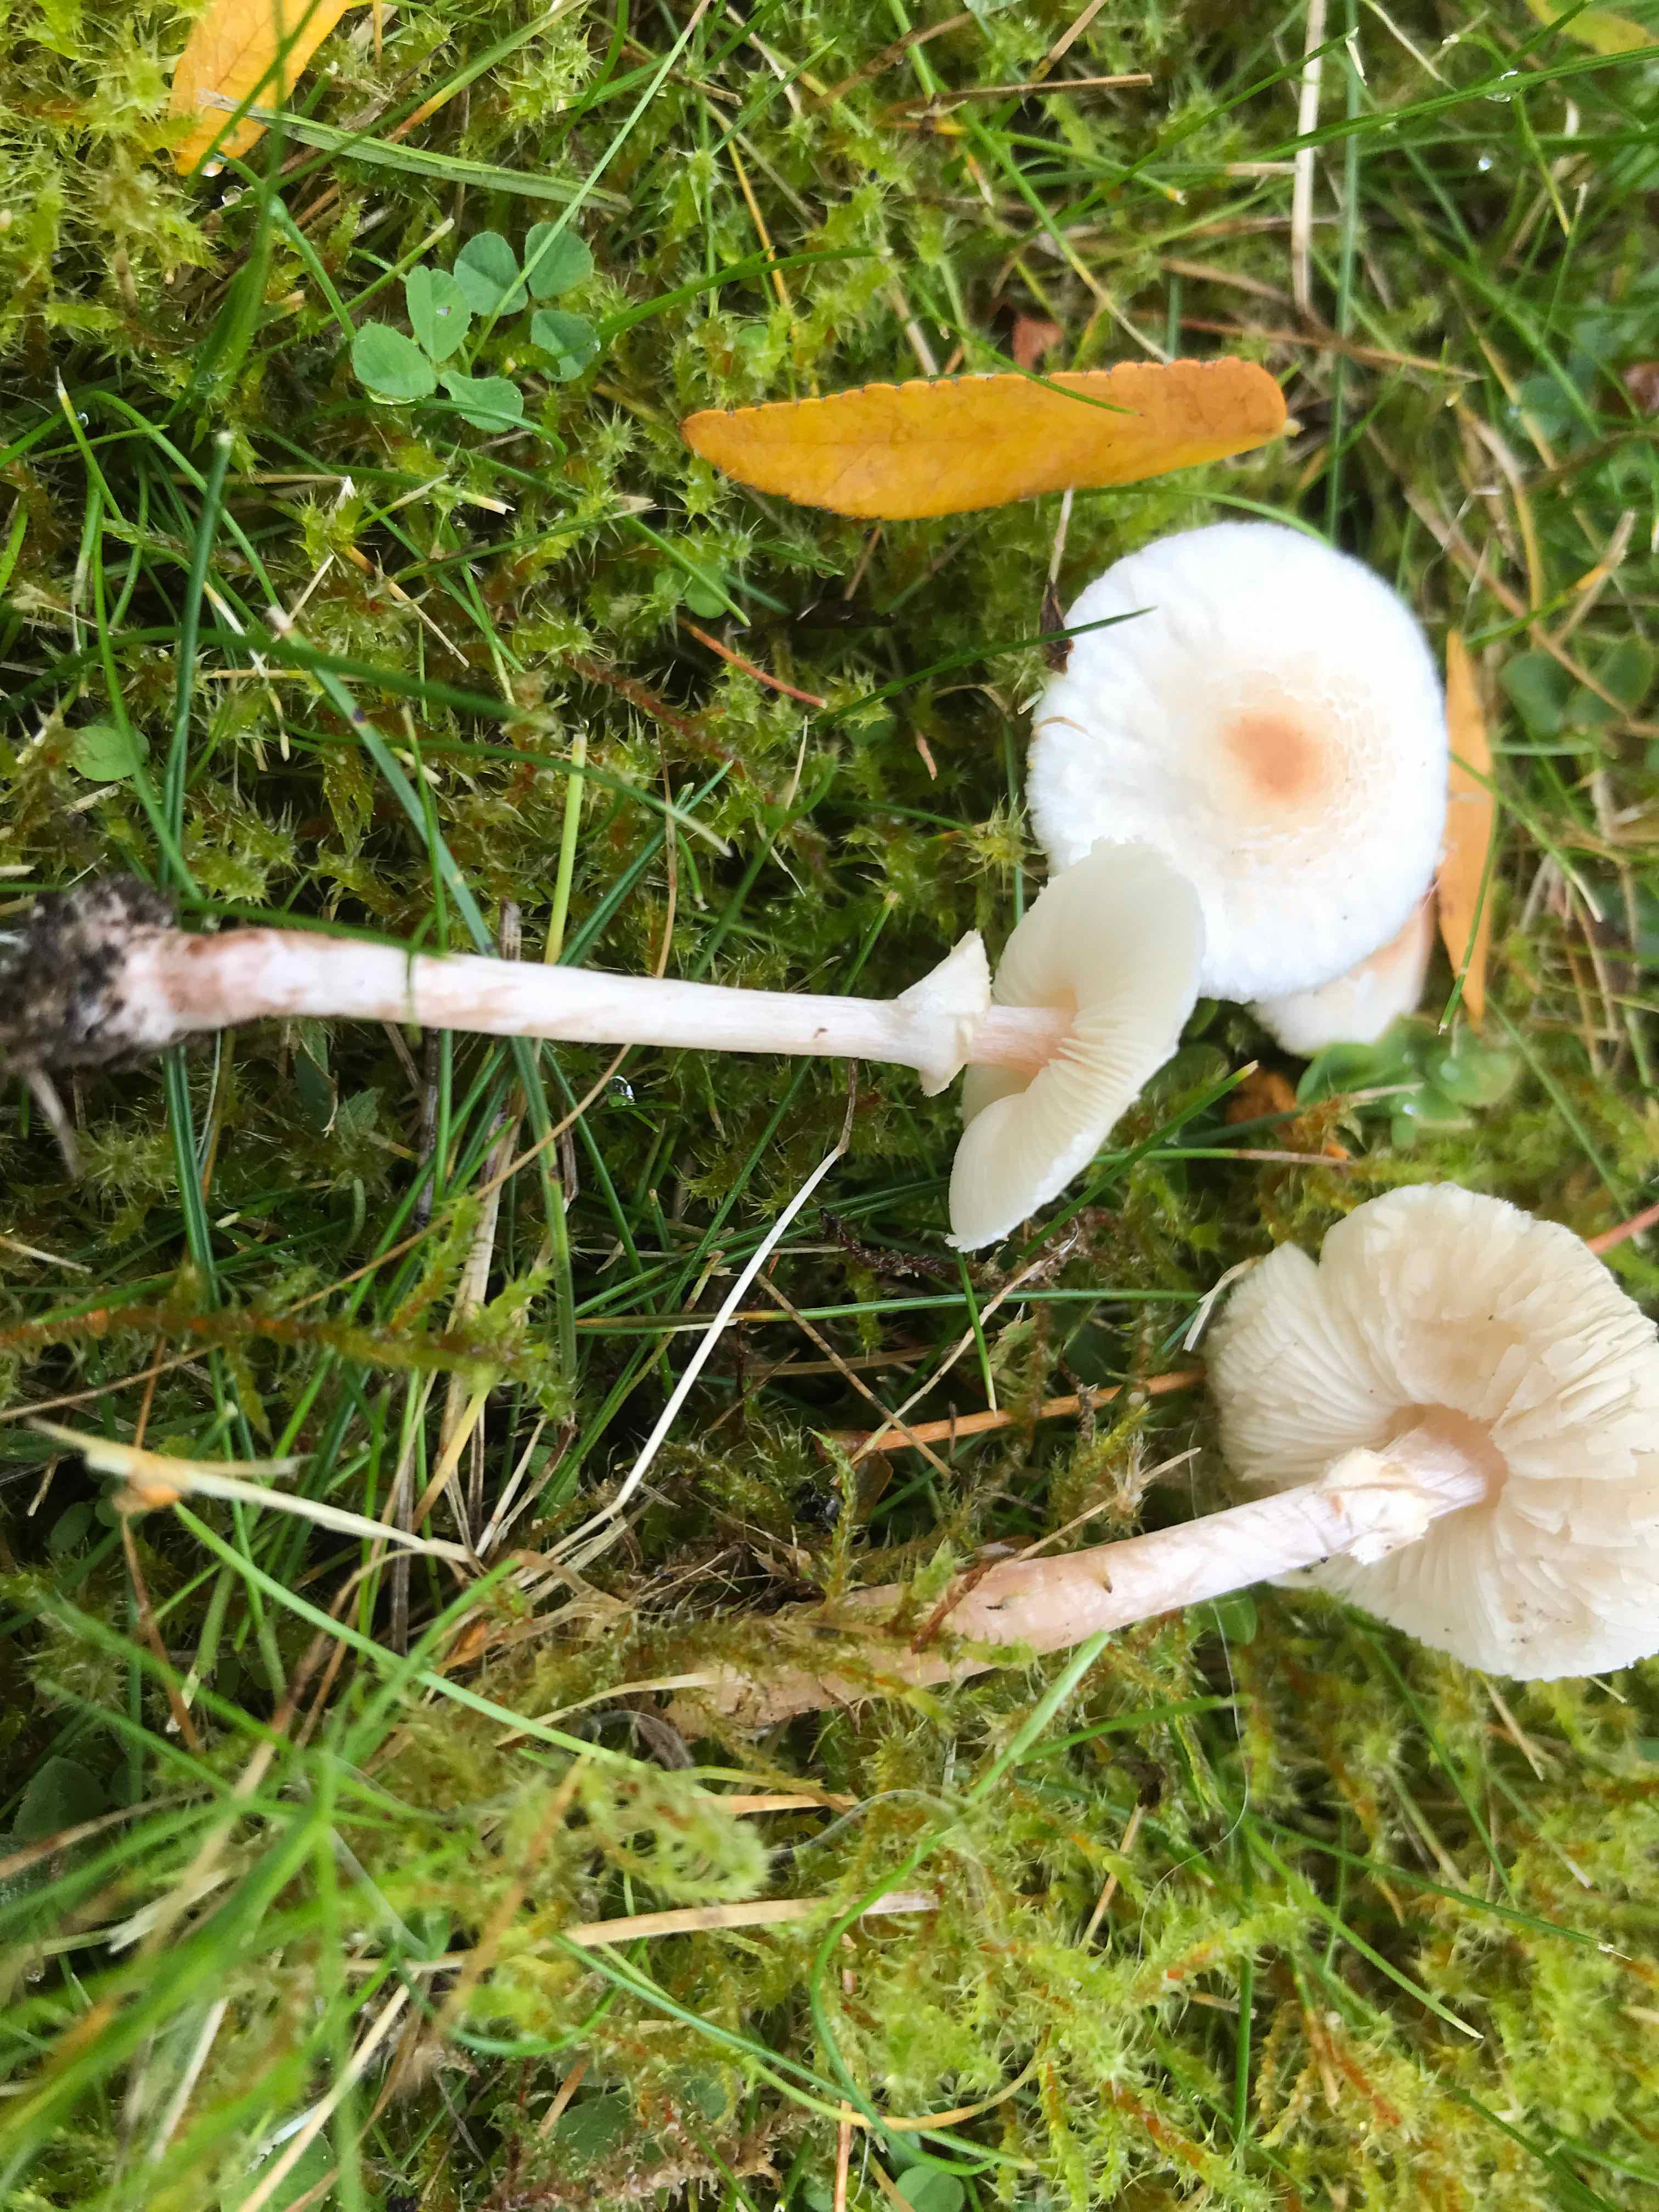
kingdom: Fungi
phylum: Basidiomycota
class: Agaricomycetes
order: Agaricales
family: Agaricaceae
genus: Lepiota
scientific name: Lepiota cristata
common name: stinkende parasolhat
